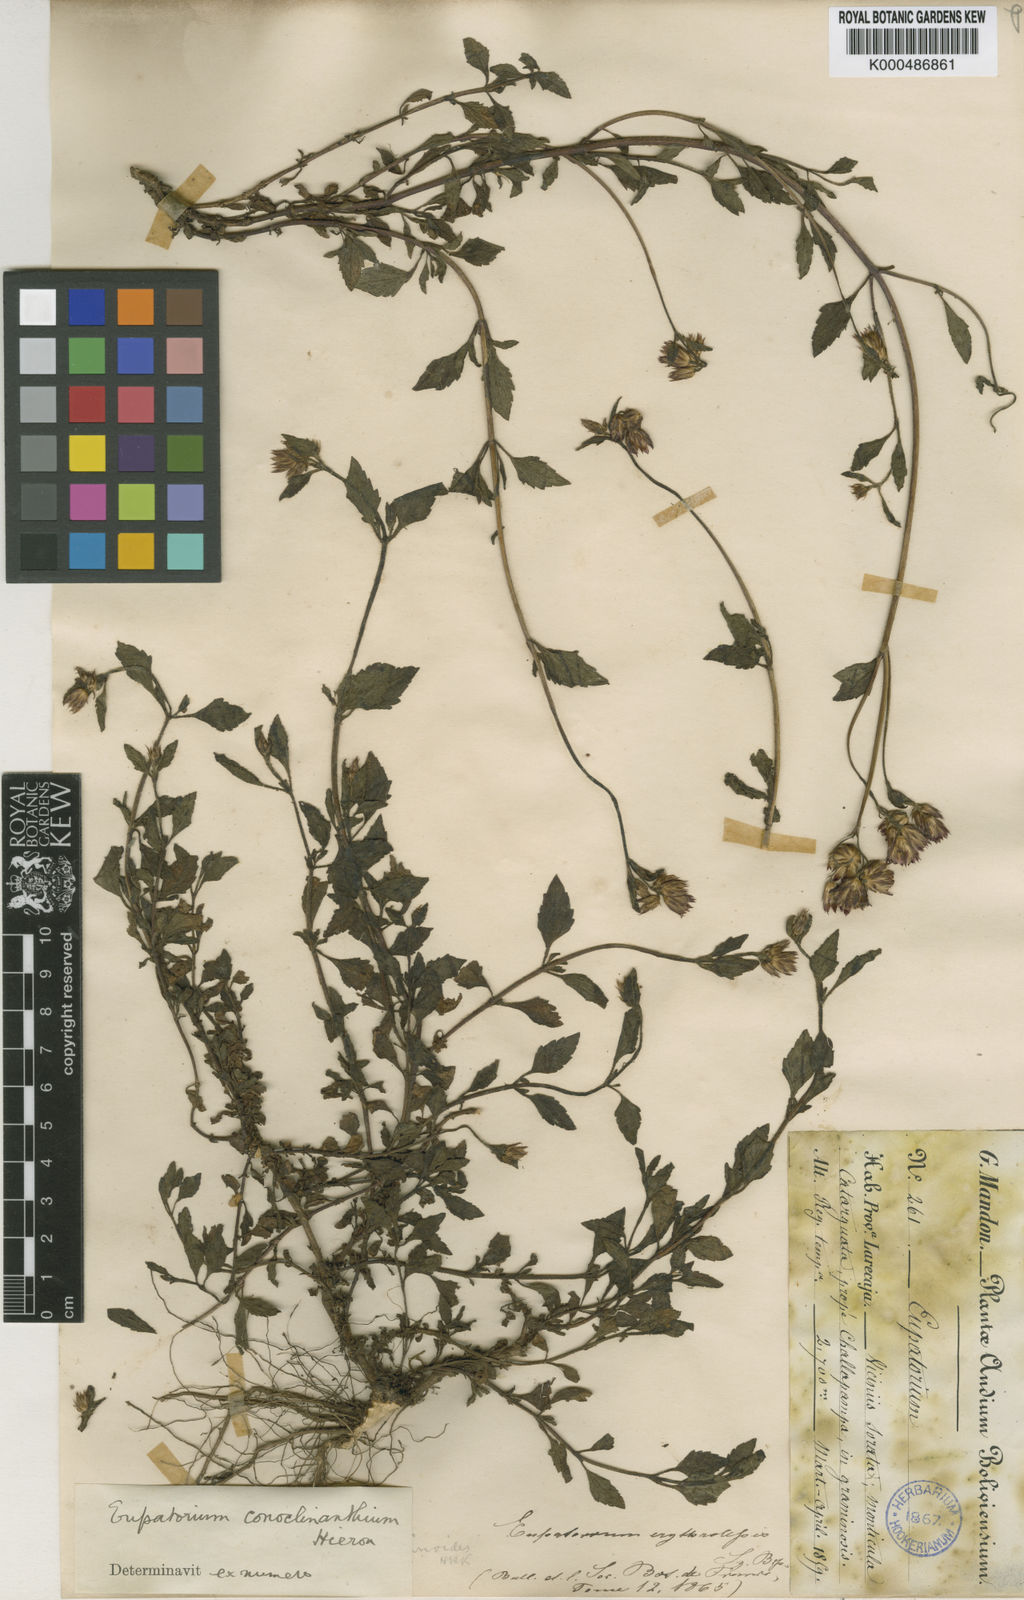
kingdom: Plantae
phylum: Tracheophyta
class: Magnoliopsida
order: Asterales
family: Asteraceae
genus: Praxelis
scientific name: Praxelis conoclinanthia
